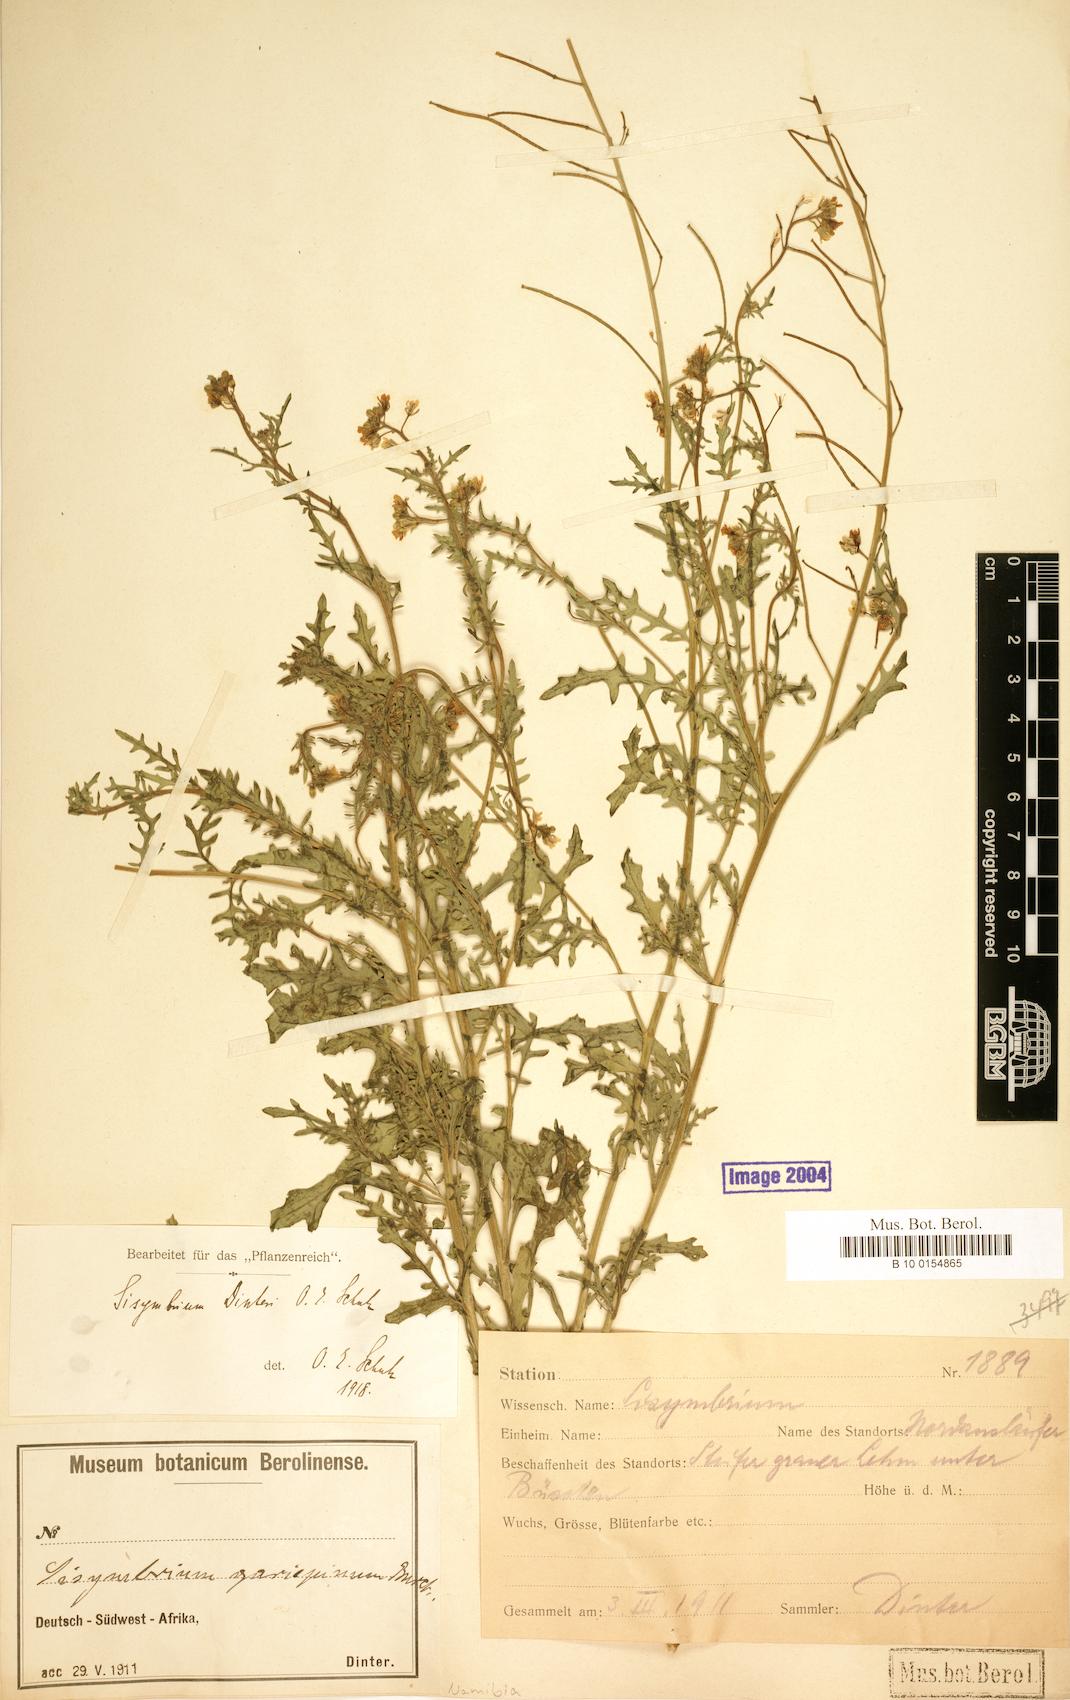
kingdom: Plantae
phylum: Tracheophyta
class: Magnoliopsida
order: Brassicales
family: Brassicaceae
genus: Sisymbrium
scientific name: Sisymbrium burchellii
